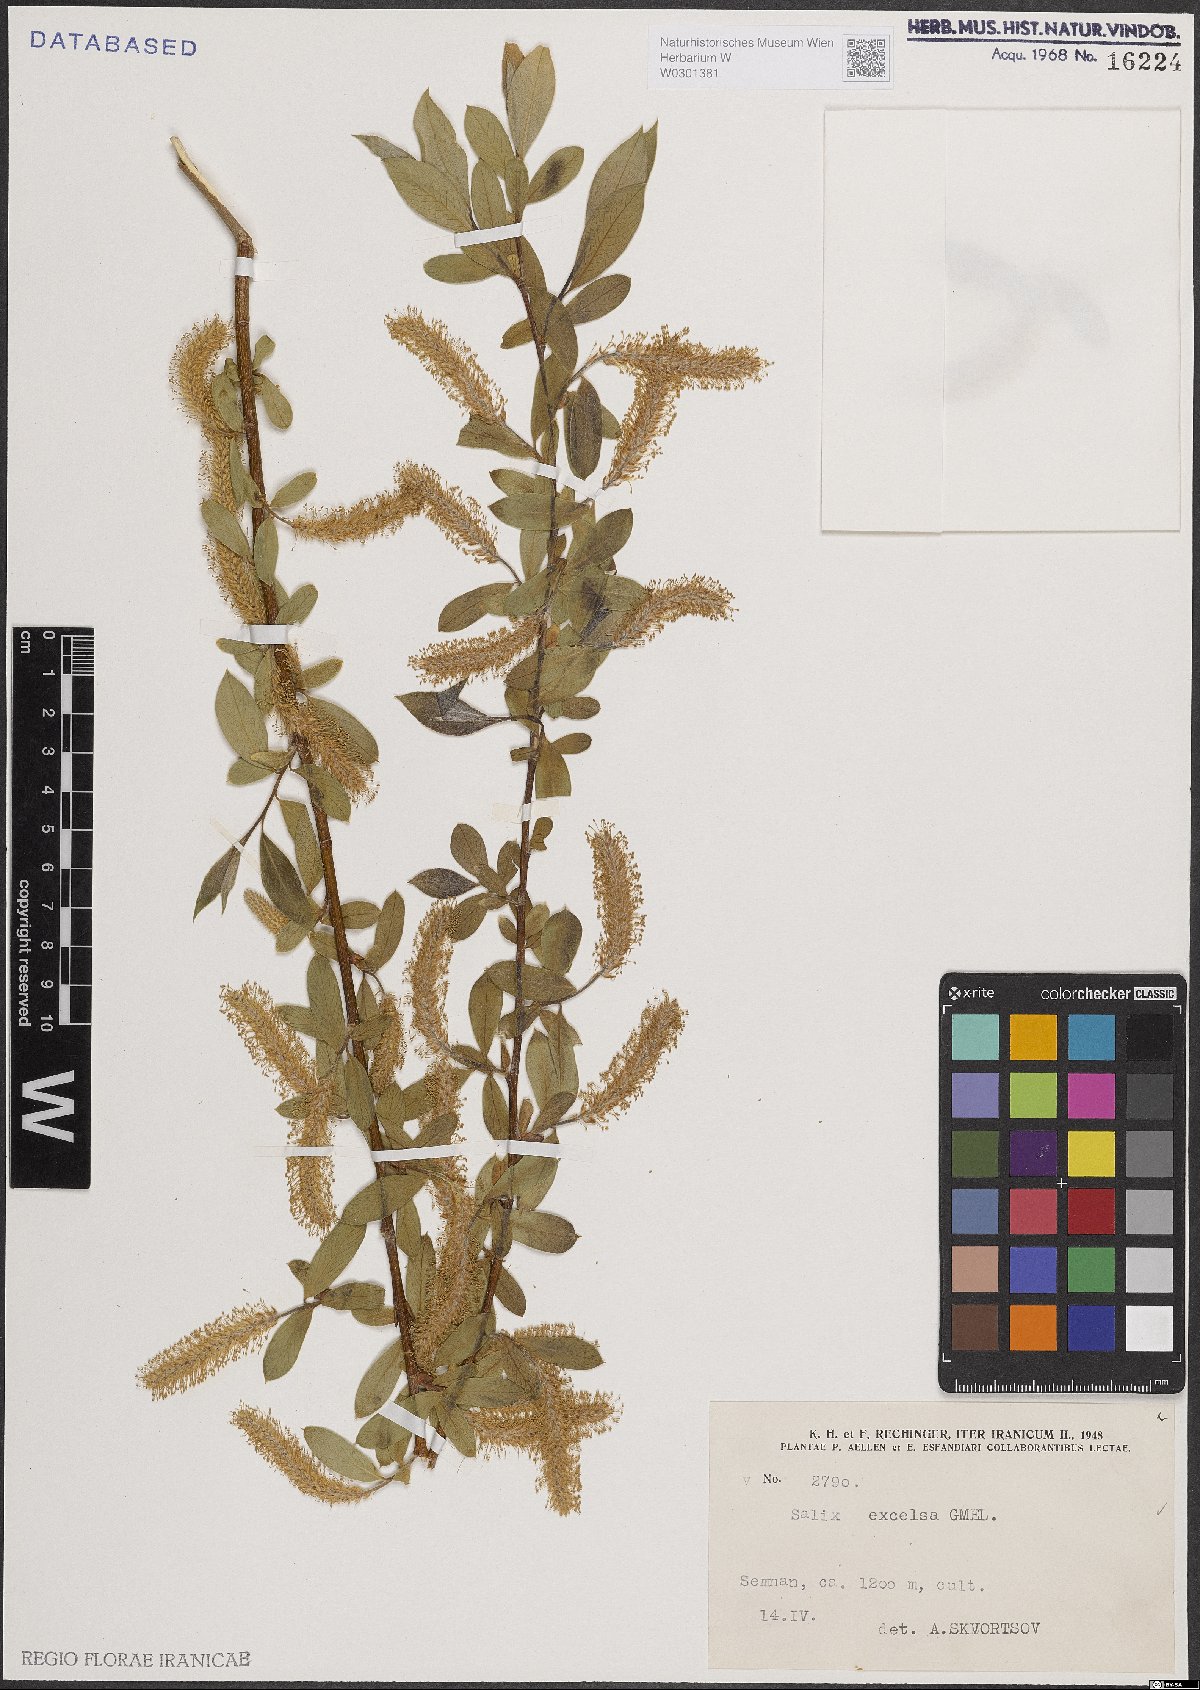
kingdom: Plantae
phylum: Tracheophyta
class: Magnoliopsida
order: Malpighiales
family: Salicaceae
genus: Salix
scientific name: Salix excelsa
